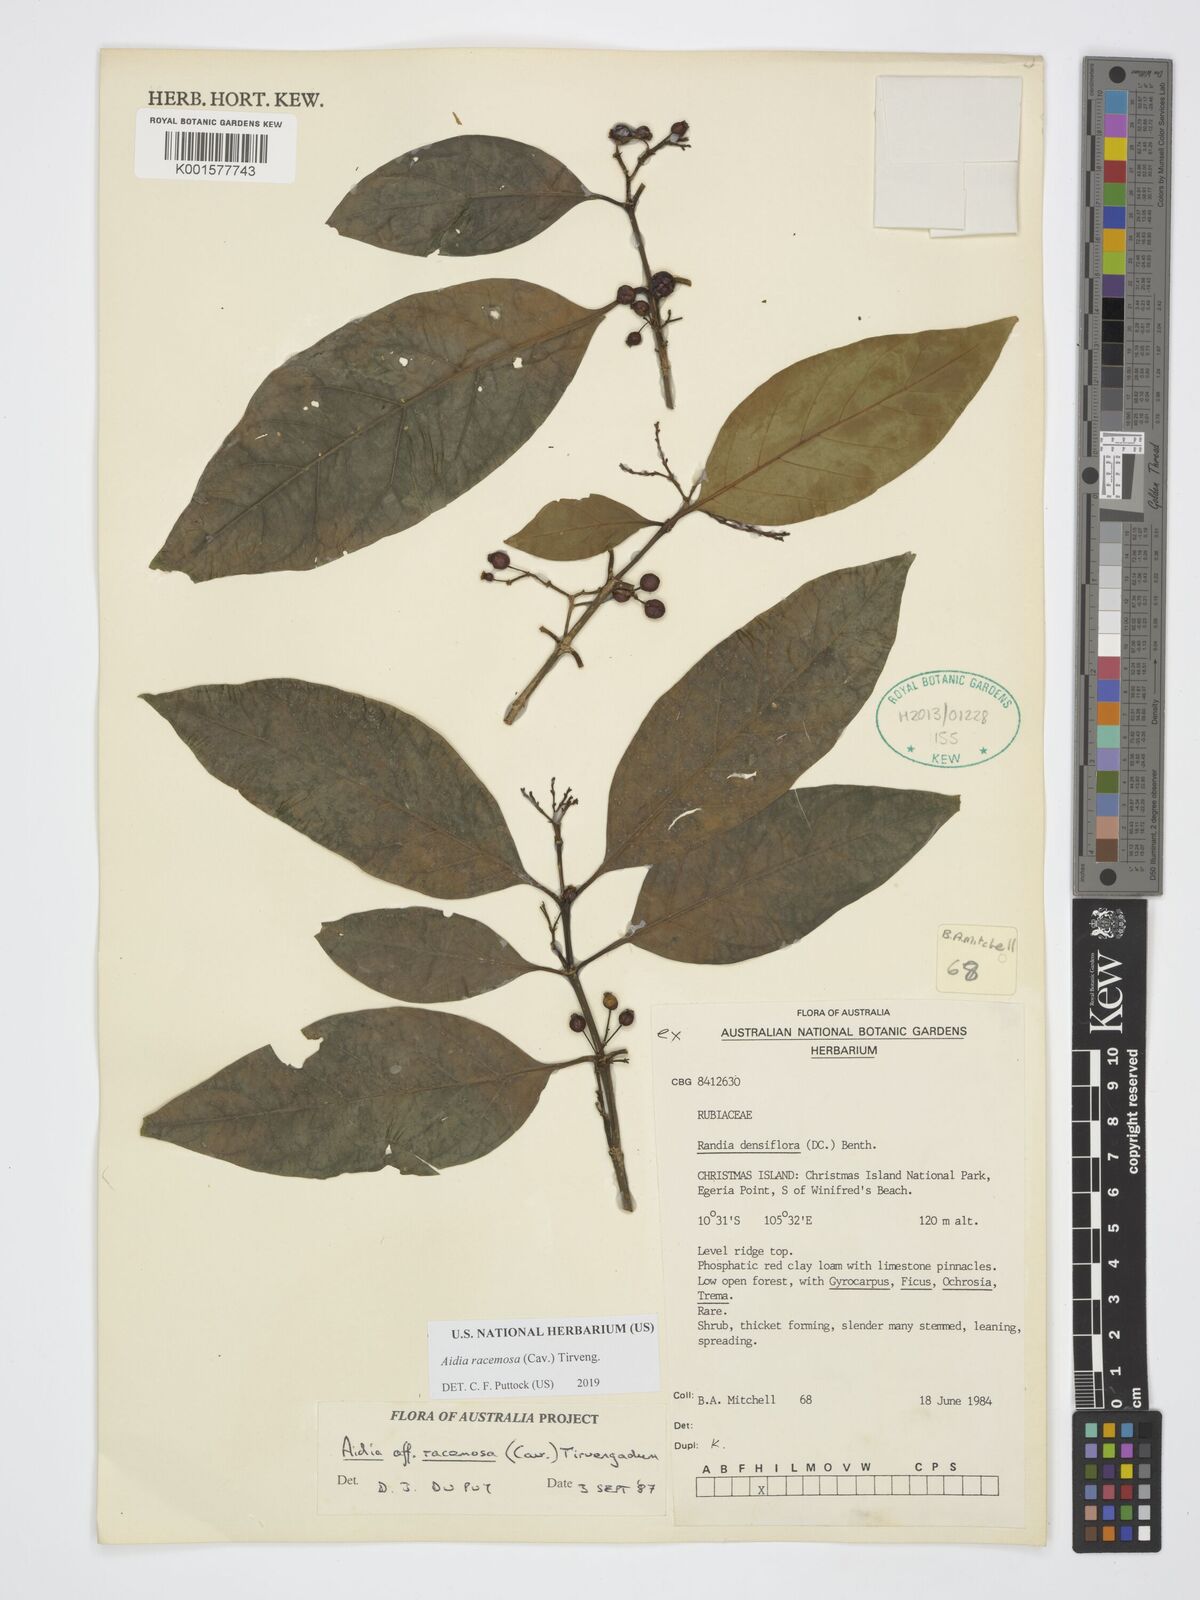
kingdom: Plantae
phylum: Tracheophyta
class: Magnoliopsida
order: Gentianales
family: Rubiaceae
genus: Aidia
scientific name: Aidia racemosa
